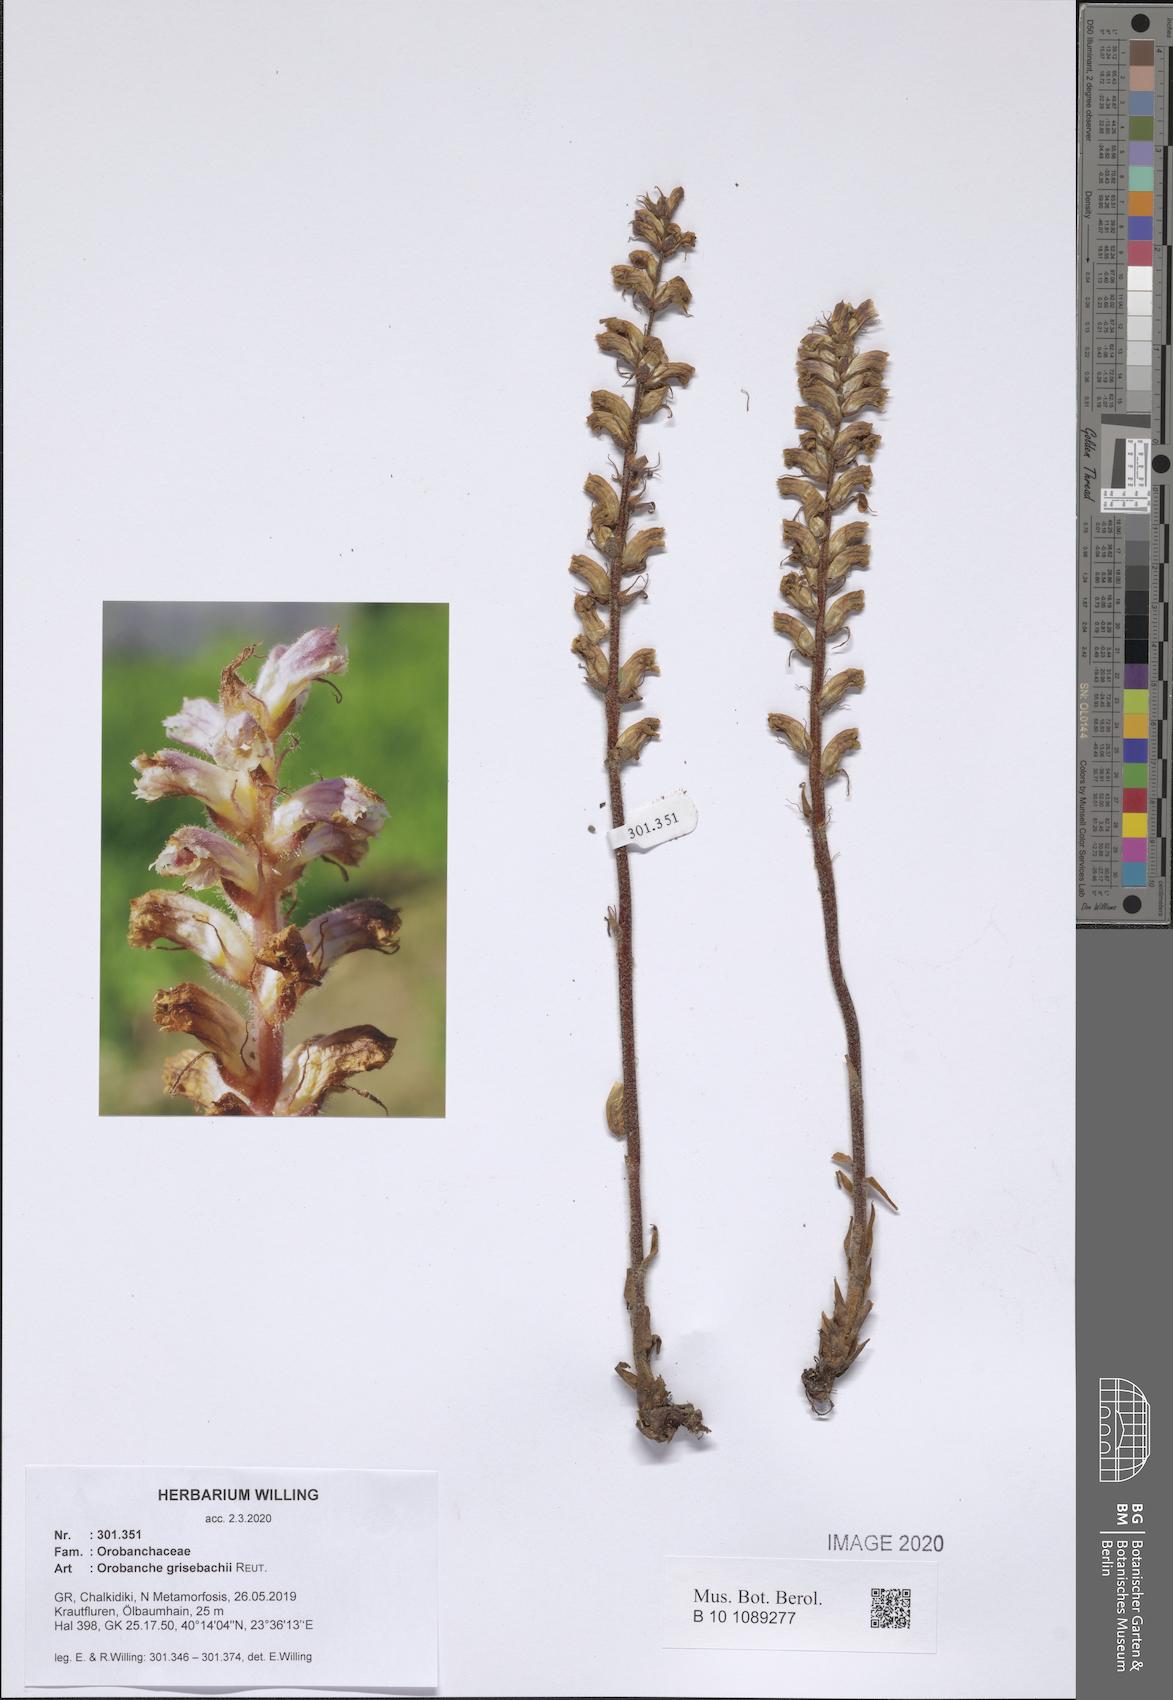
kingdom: Plantae
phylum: Tracheophyta
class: Magnoliopsida
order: Lamiales
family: Orobanchaceae
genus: Orobanche
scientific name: Orobanche grisebachii
